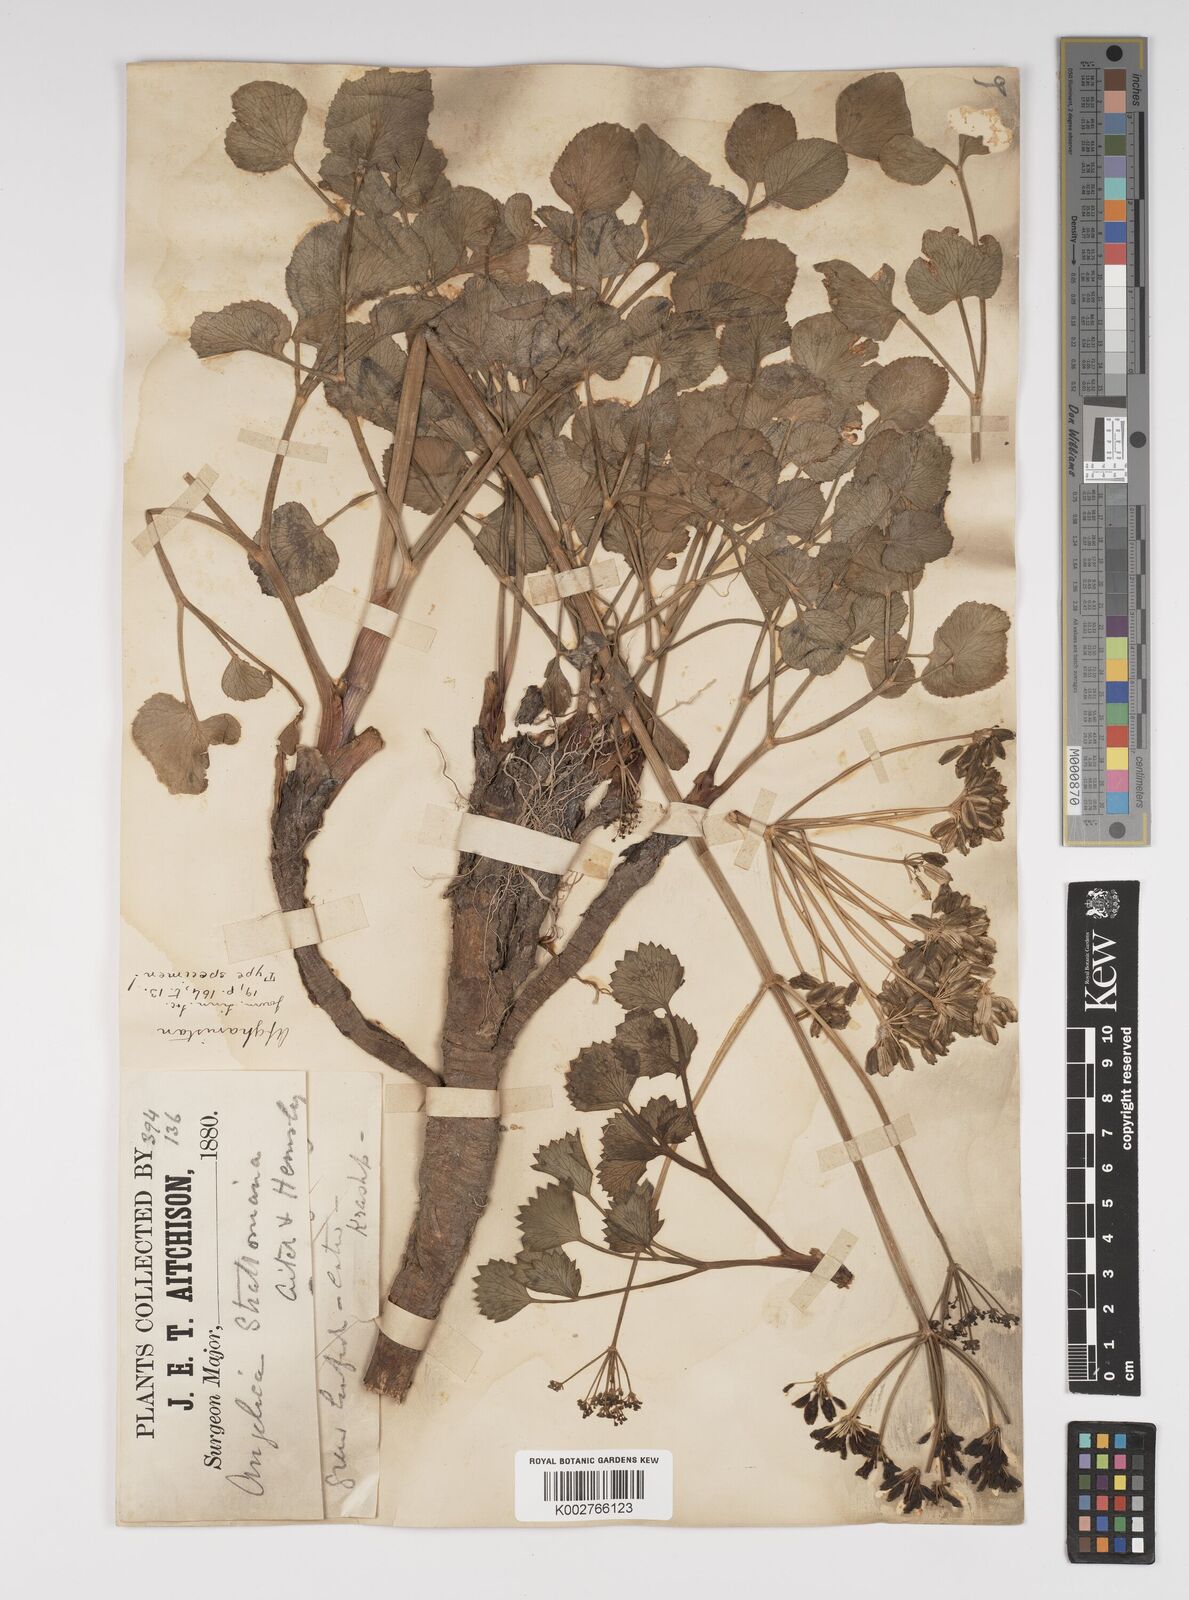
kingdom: Plantae
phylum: Tracheophyta
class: Magnoliopsida
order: Apiales
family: Apiaceae
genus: Angelica
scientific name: Angelica ternata
